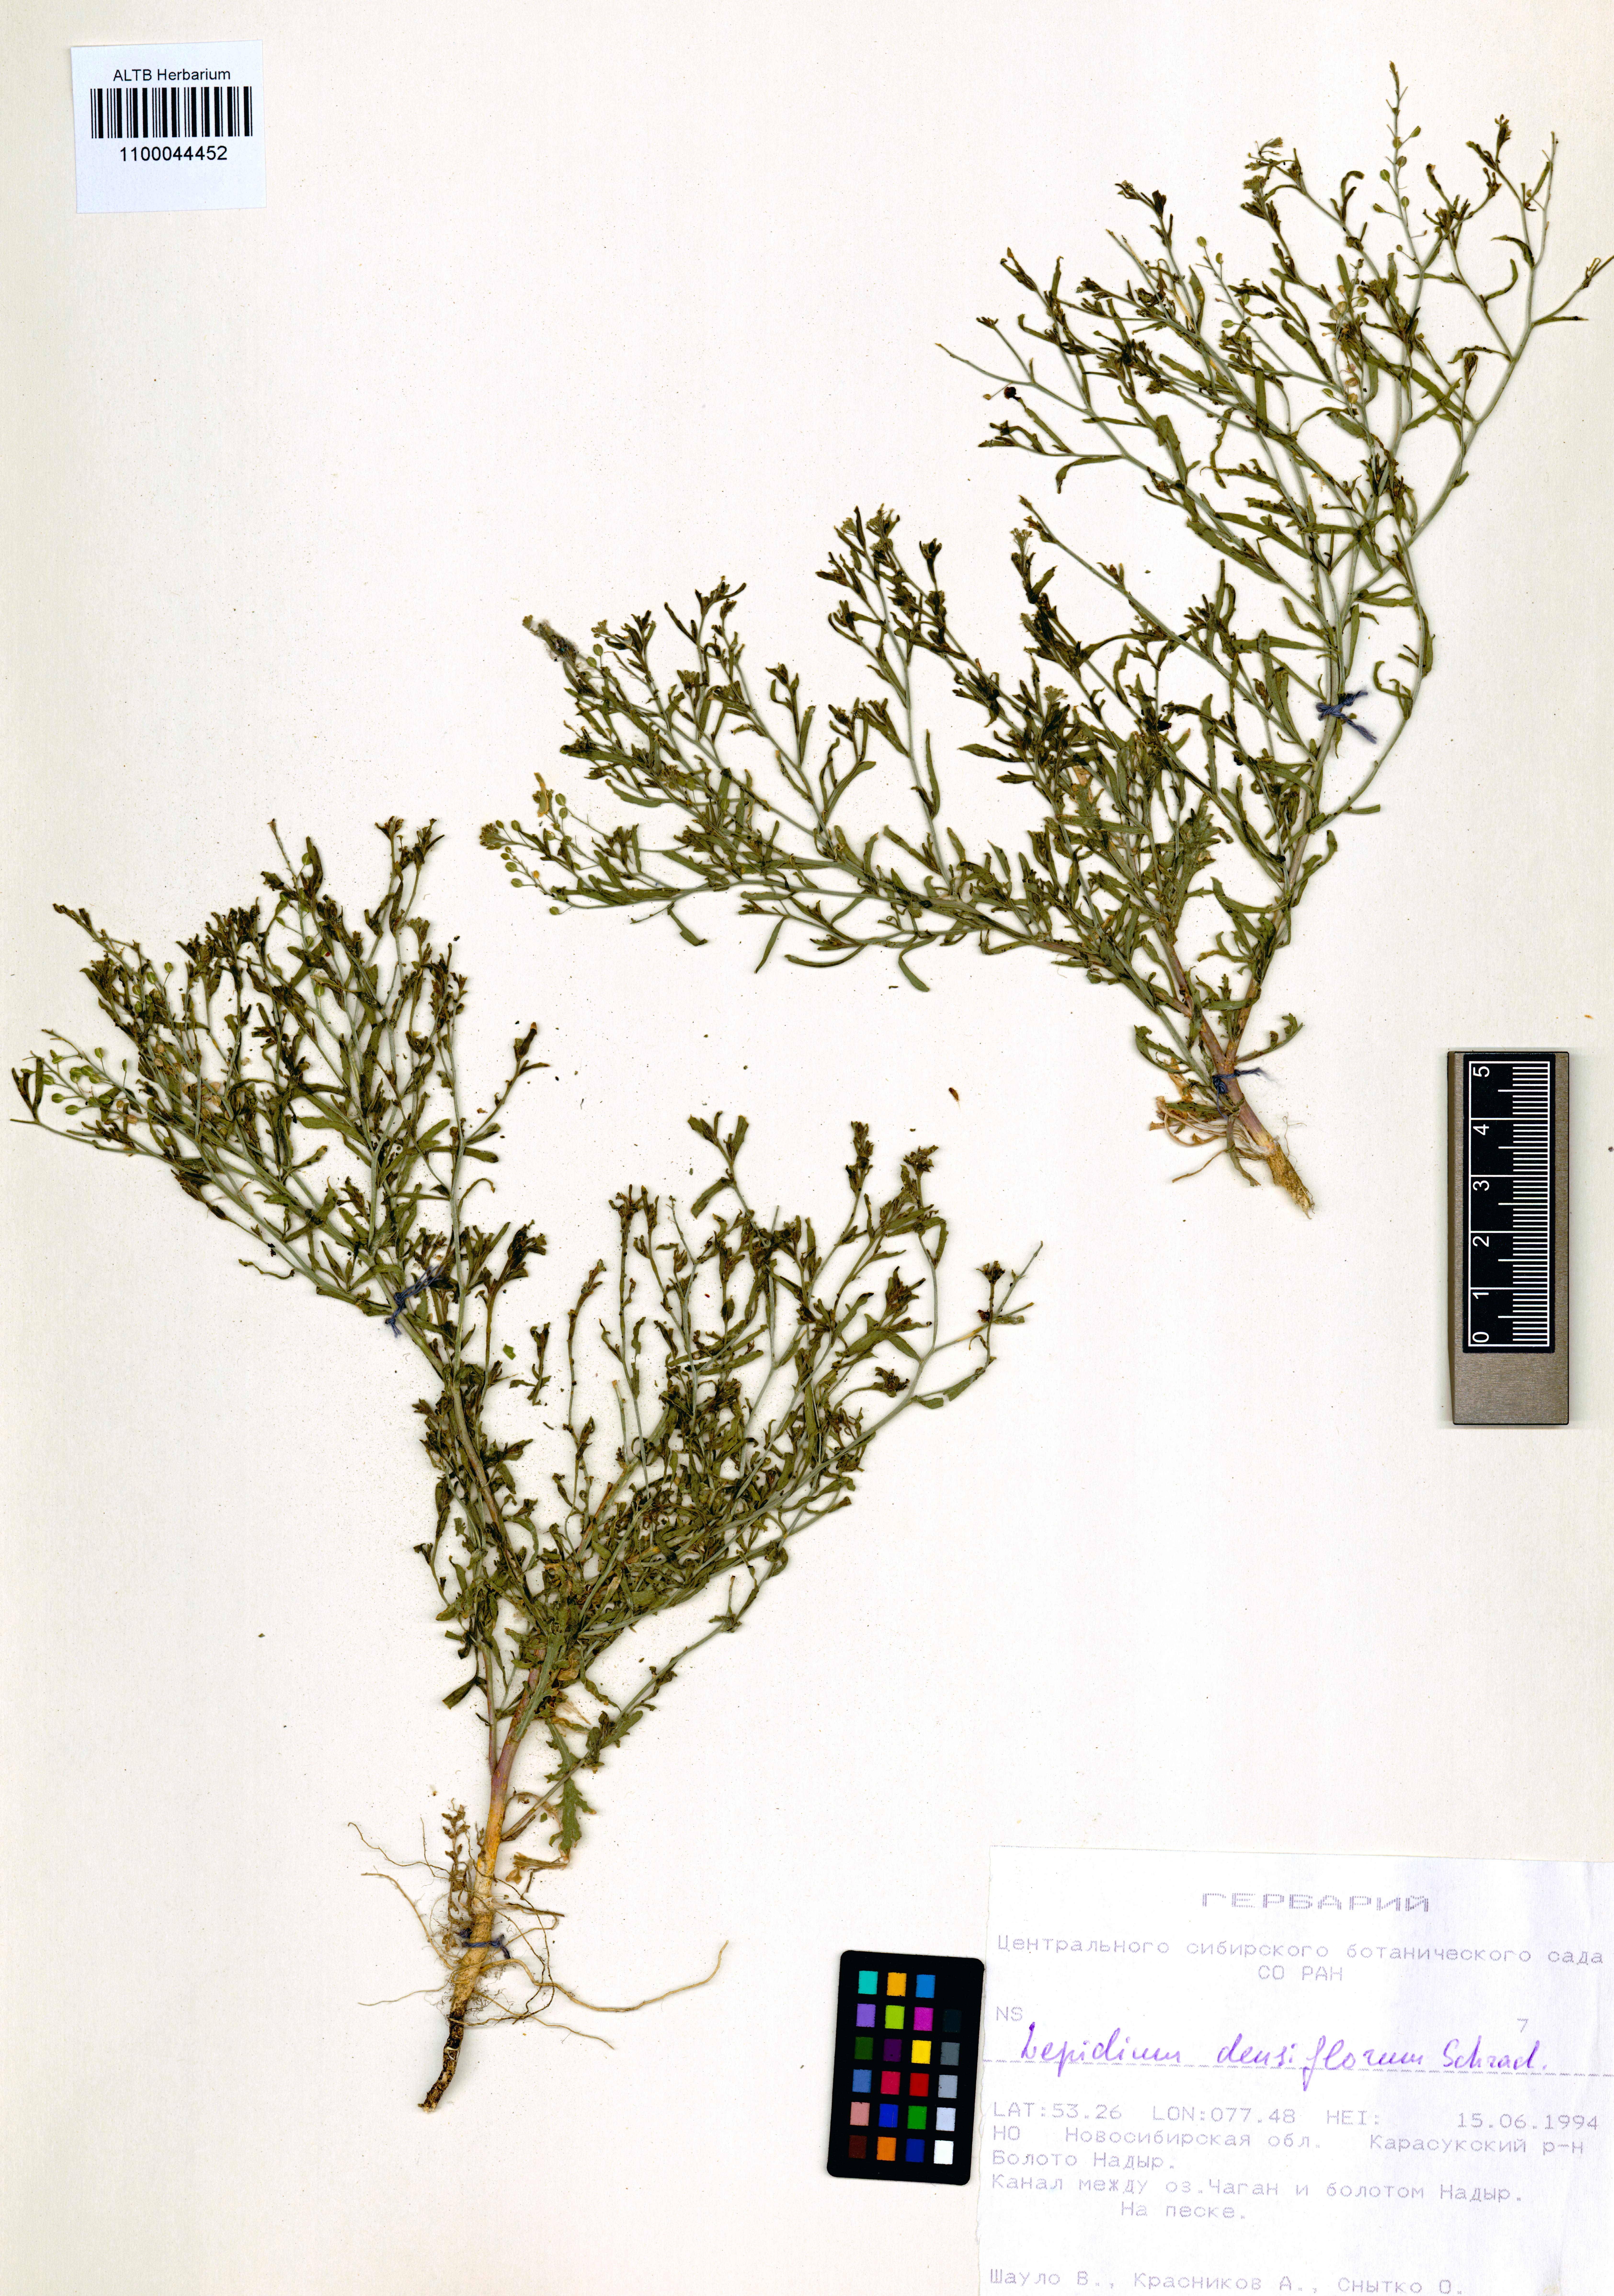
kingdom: Plantae
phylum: Tracheophyta
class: Magnoliopsida
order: Brassicales
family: Brassicaceae
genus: Lepidium
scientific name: Lepidium densiflorum
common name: Miner's pepperwort
